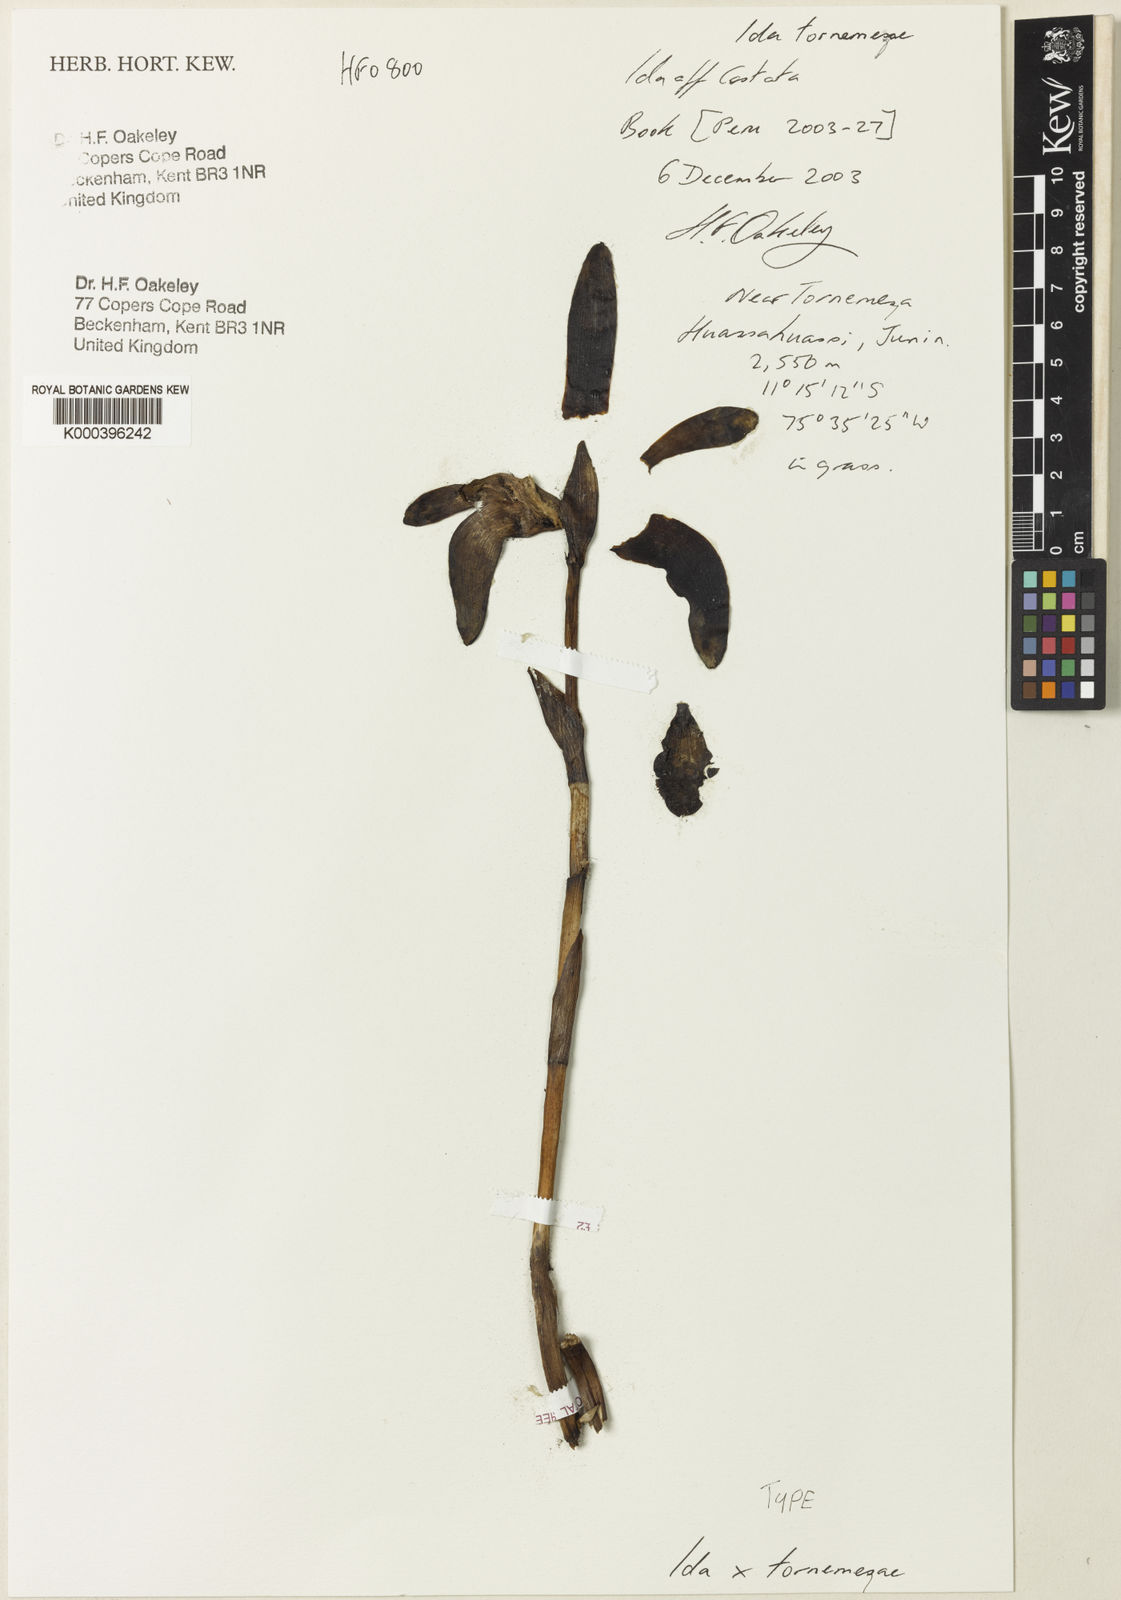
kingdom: Plantae
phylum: Tracheophyta
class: Liliopsida
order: Asparagales
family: Orchidaceae
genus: Ida
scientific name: Ida tornemezae
